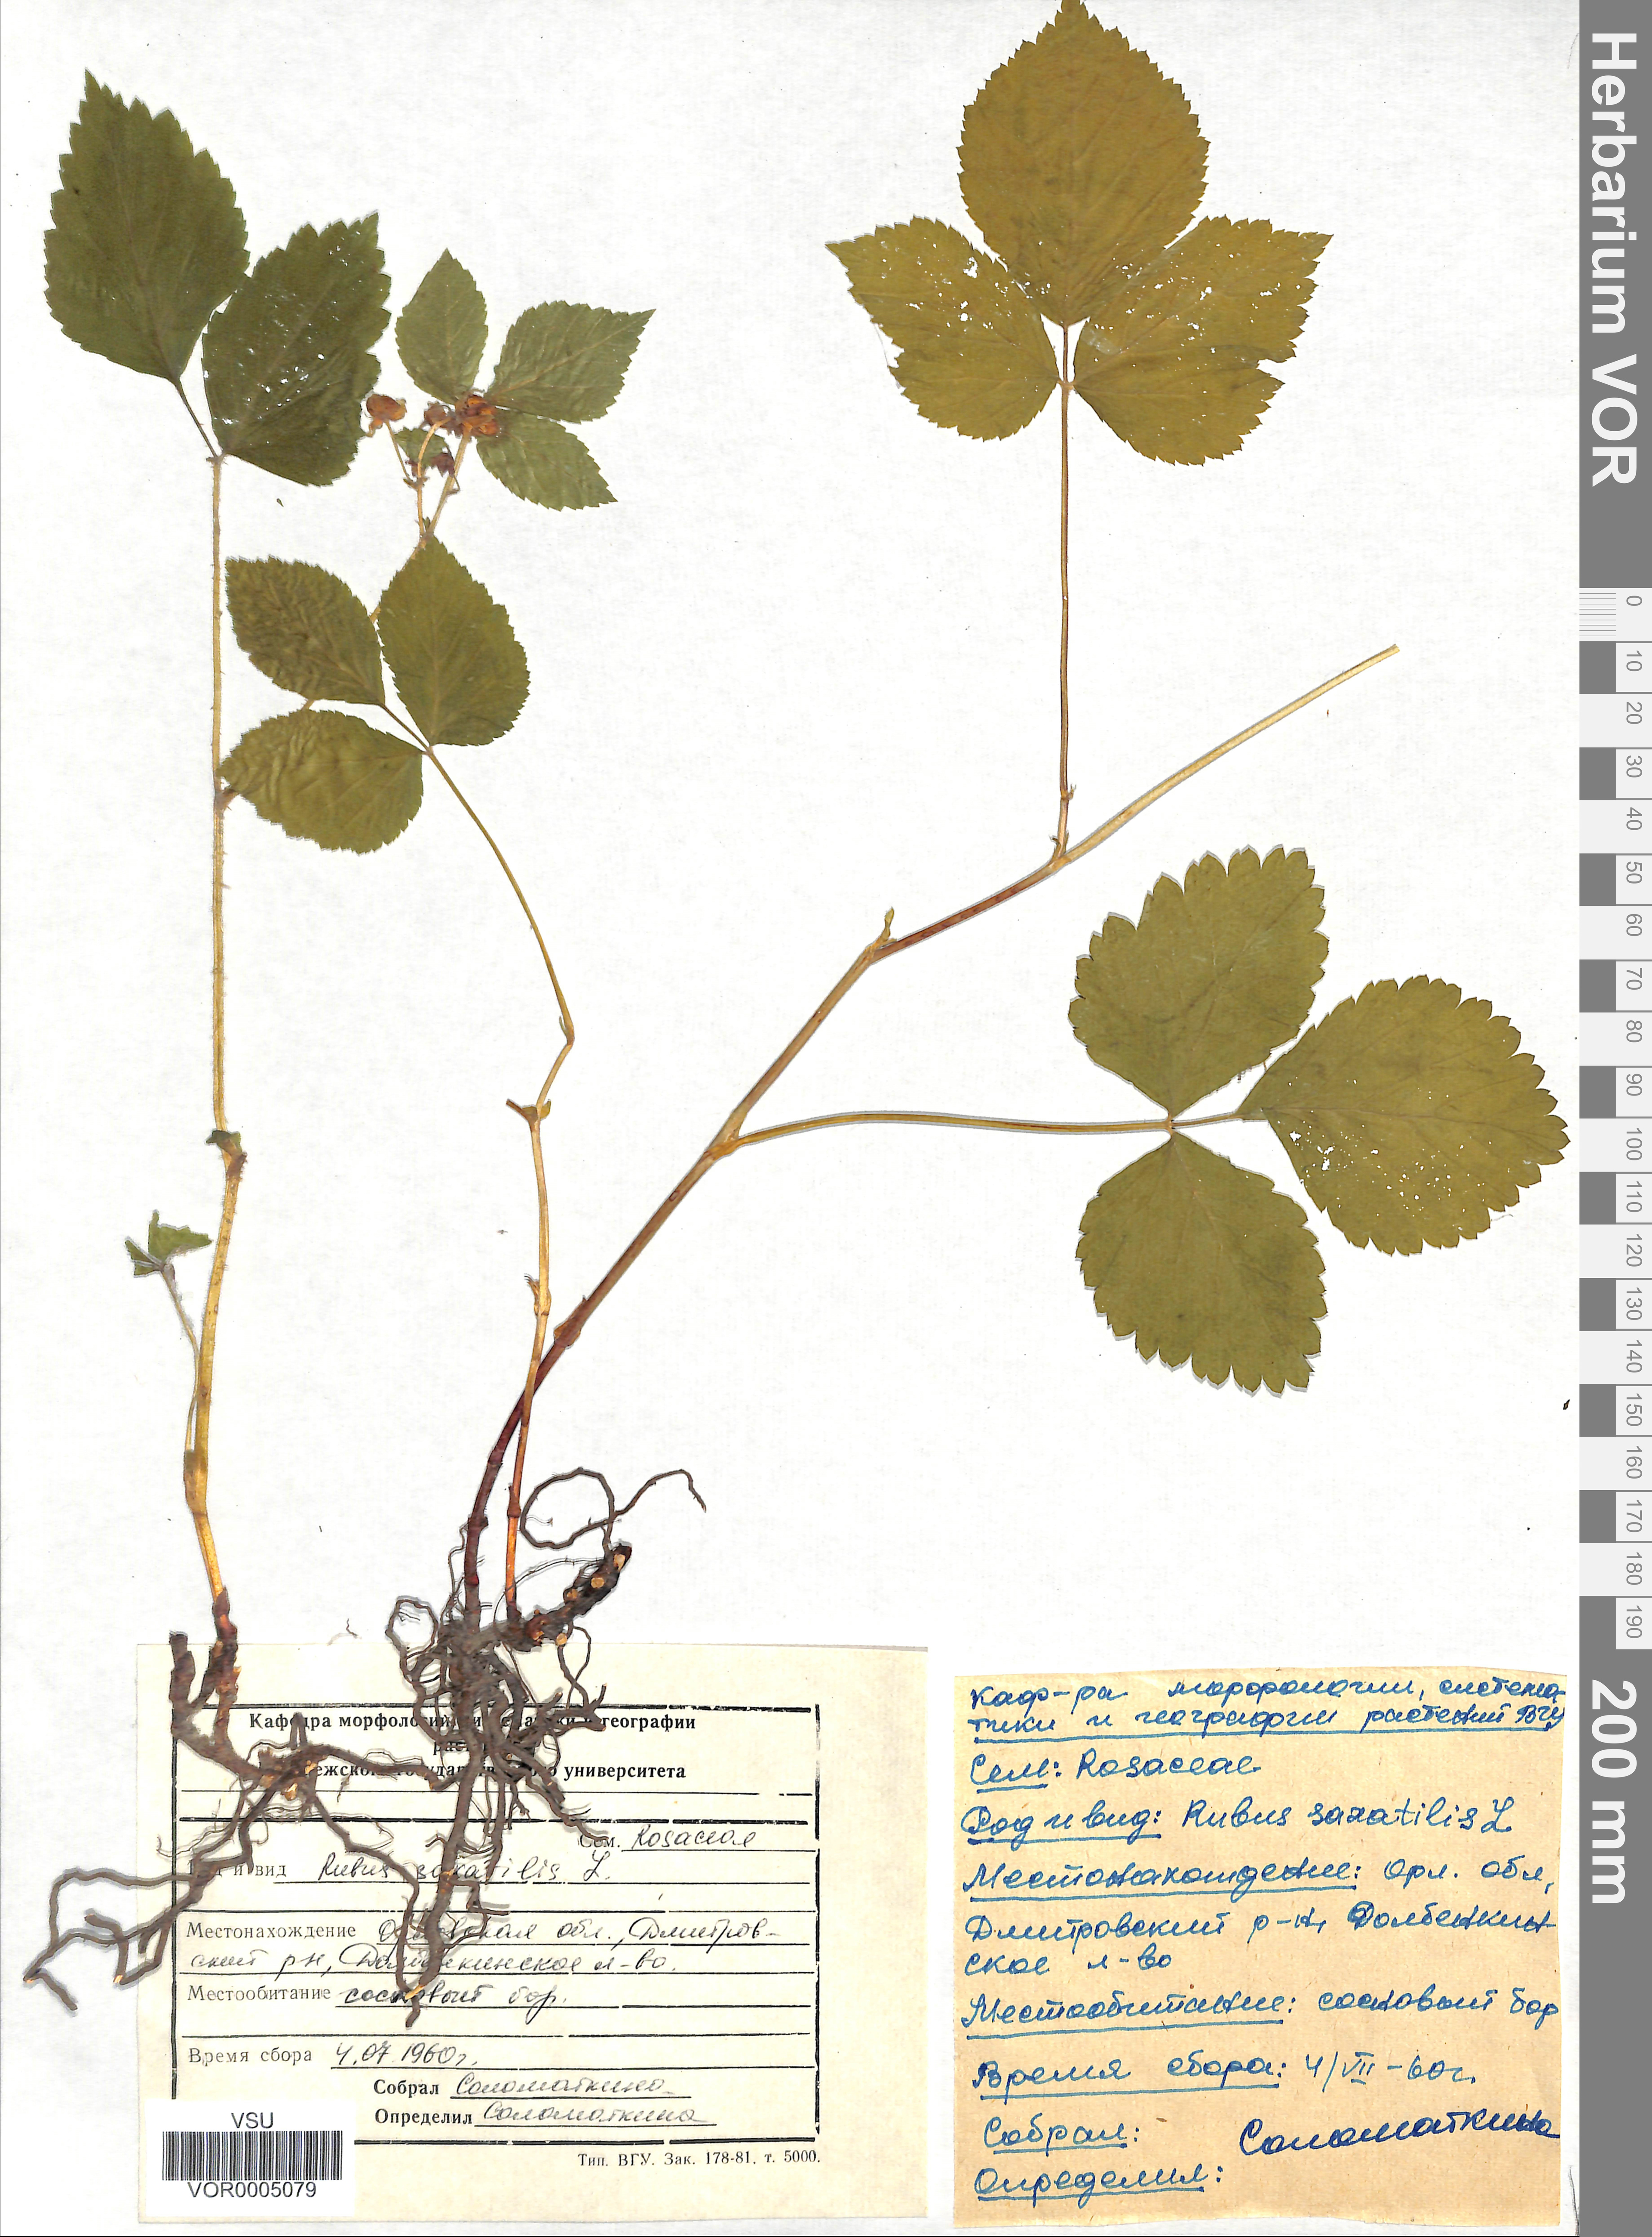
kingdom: Plantae
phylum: Tracheophyta
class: Magnoliopsida
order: Rosales
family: Rosaceae
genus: Rubus
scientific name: Rubus saxatilis
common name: Stone bramble
